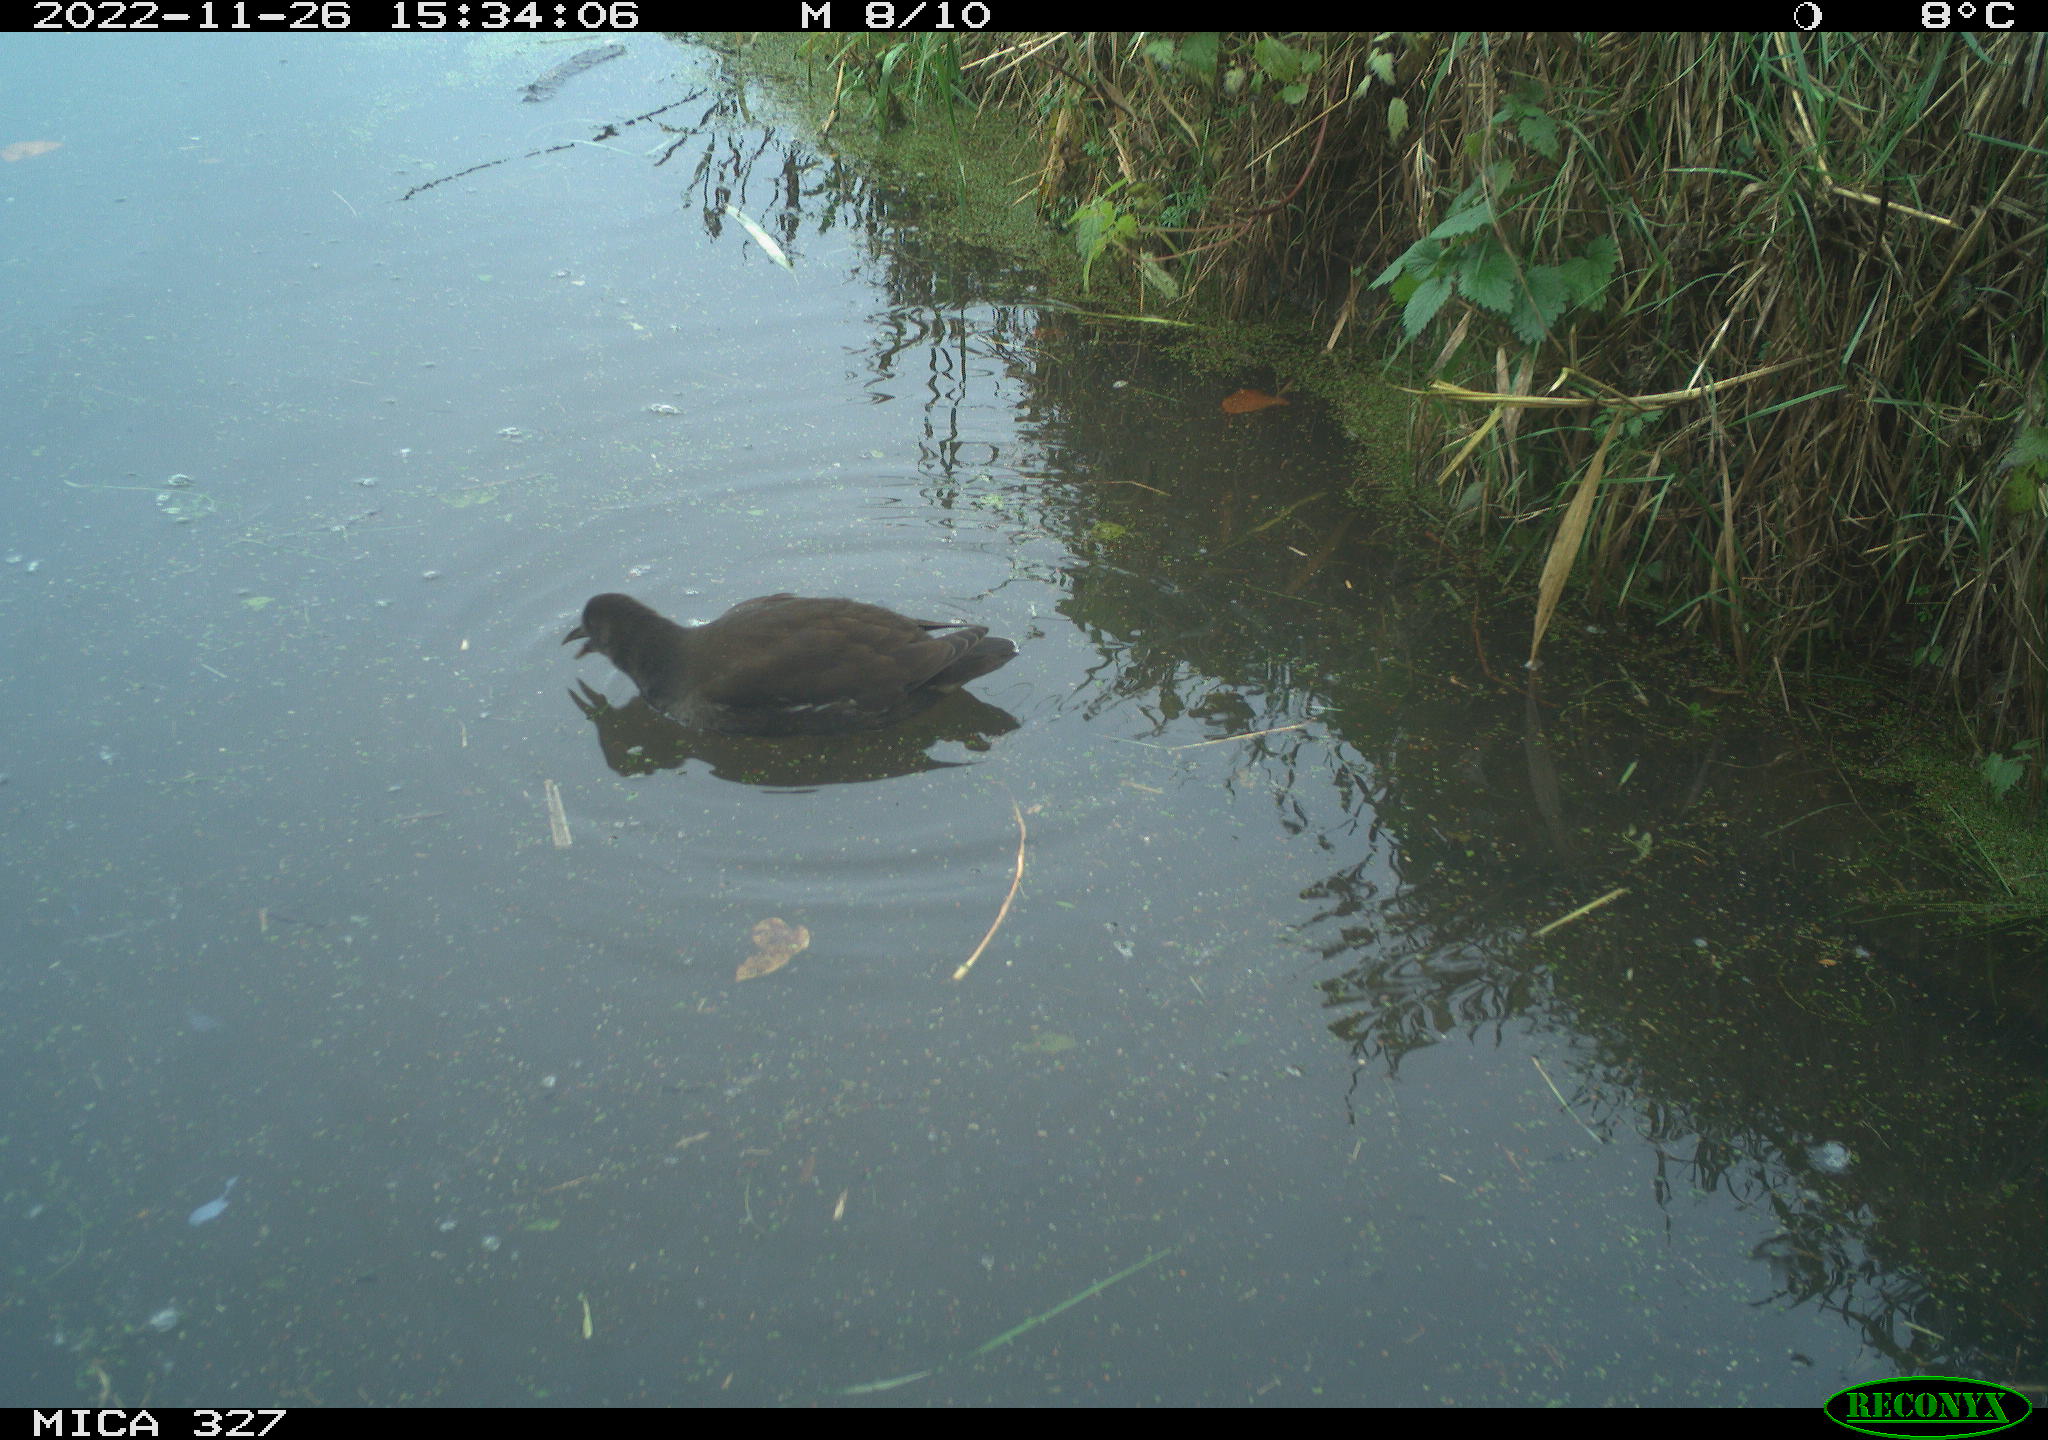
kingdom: Animalia
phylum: Chordata
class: Aves
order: Gruiformes
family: Rallidae
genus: Gallinula
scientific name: Gallinula chloropus
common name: Common moorhen
